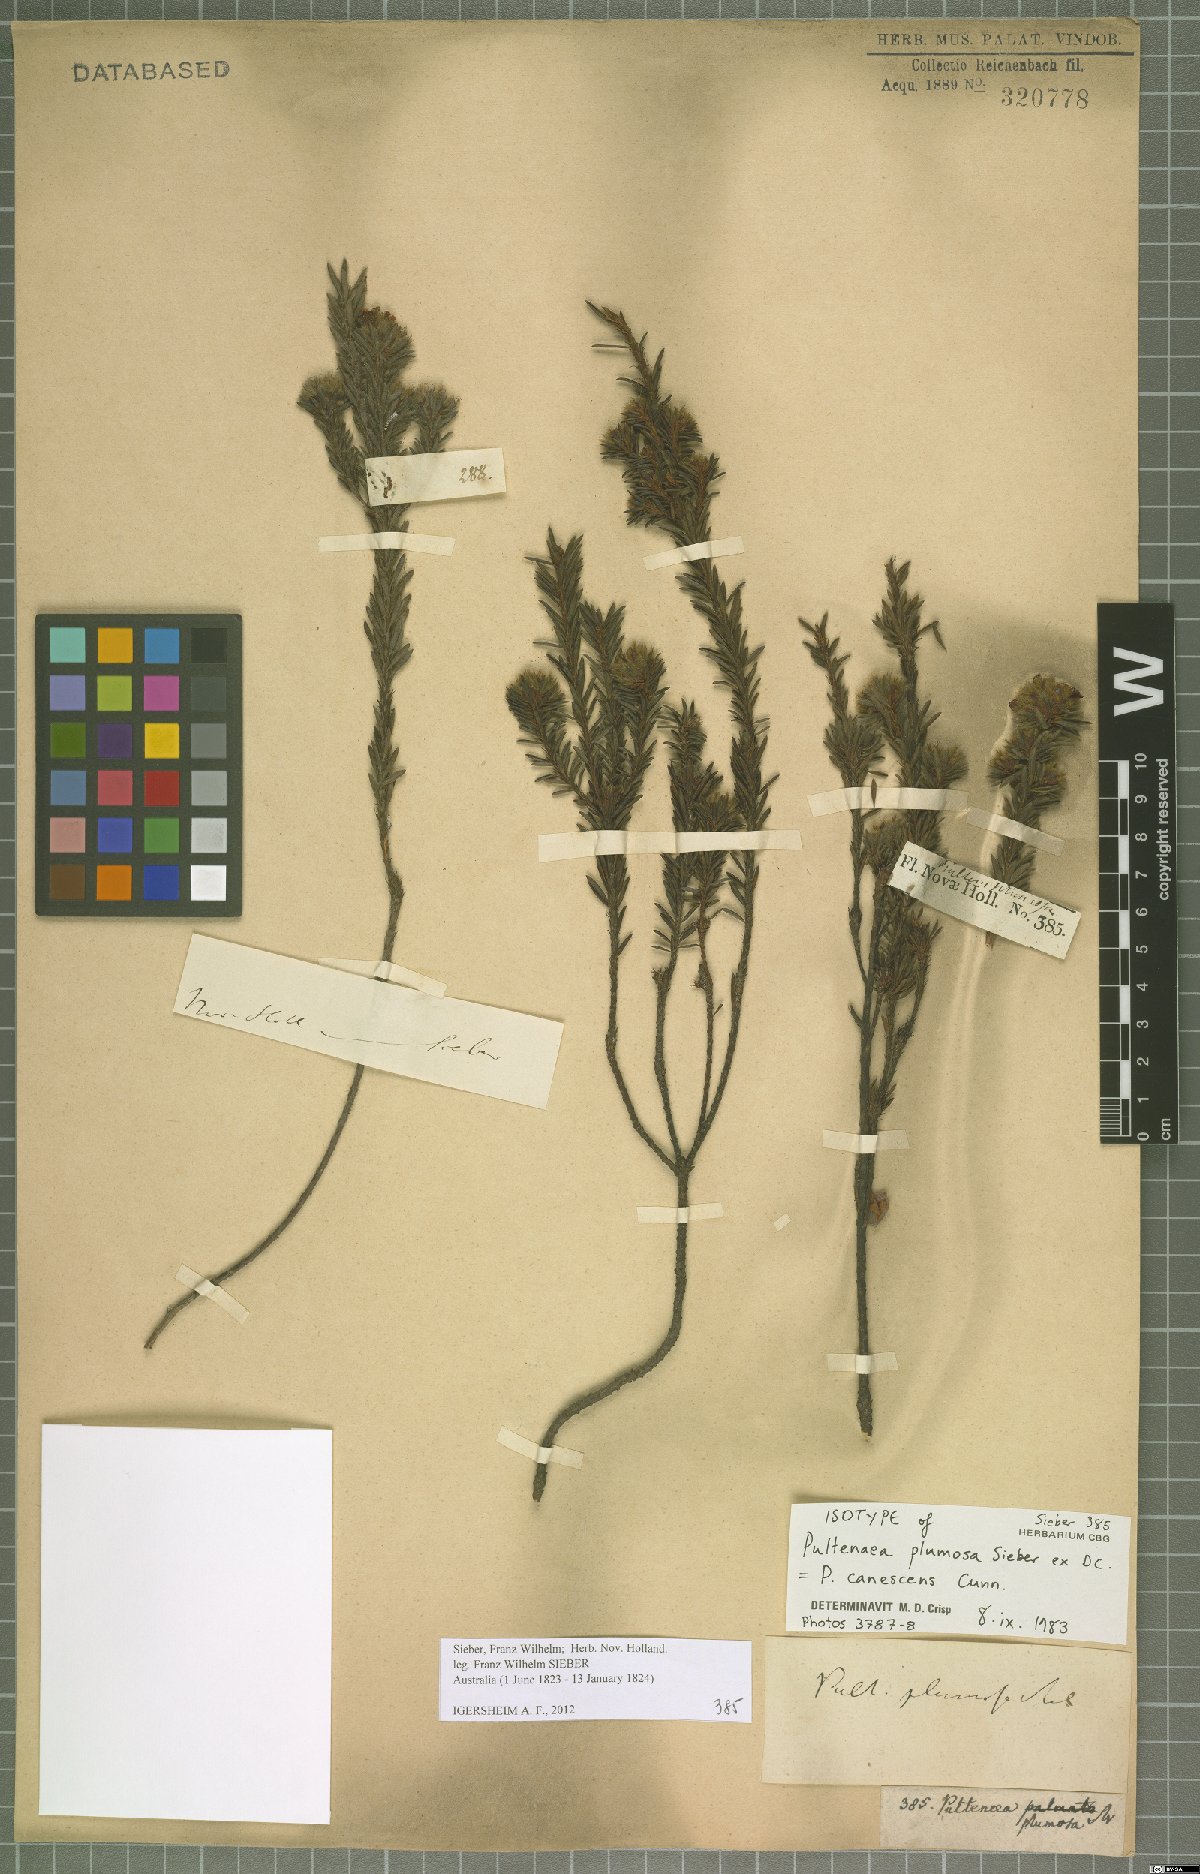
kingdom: Plantae
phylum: Tracheophyta
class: Magnoliopsida
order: Fabales
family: Fabaceae
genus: Pultenaea
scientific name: Pultenaea canescens
